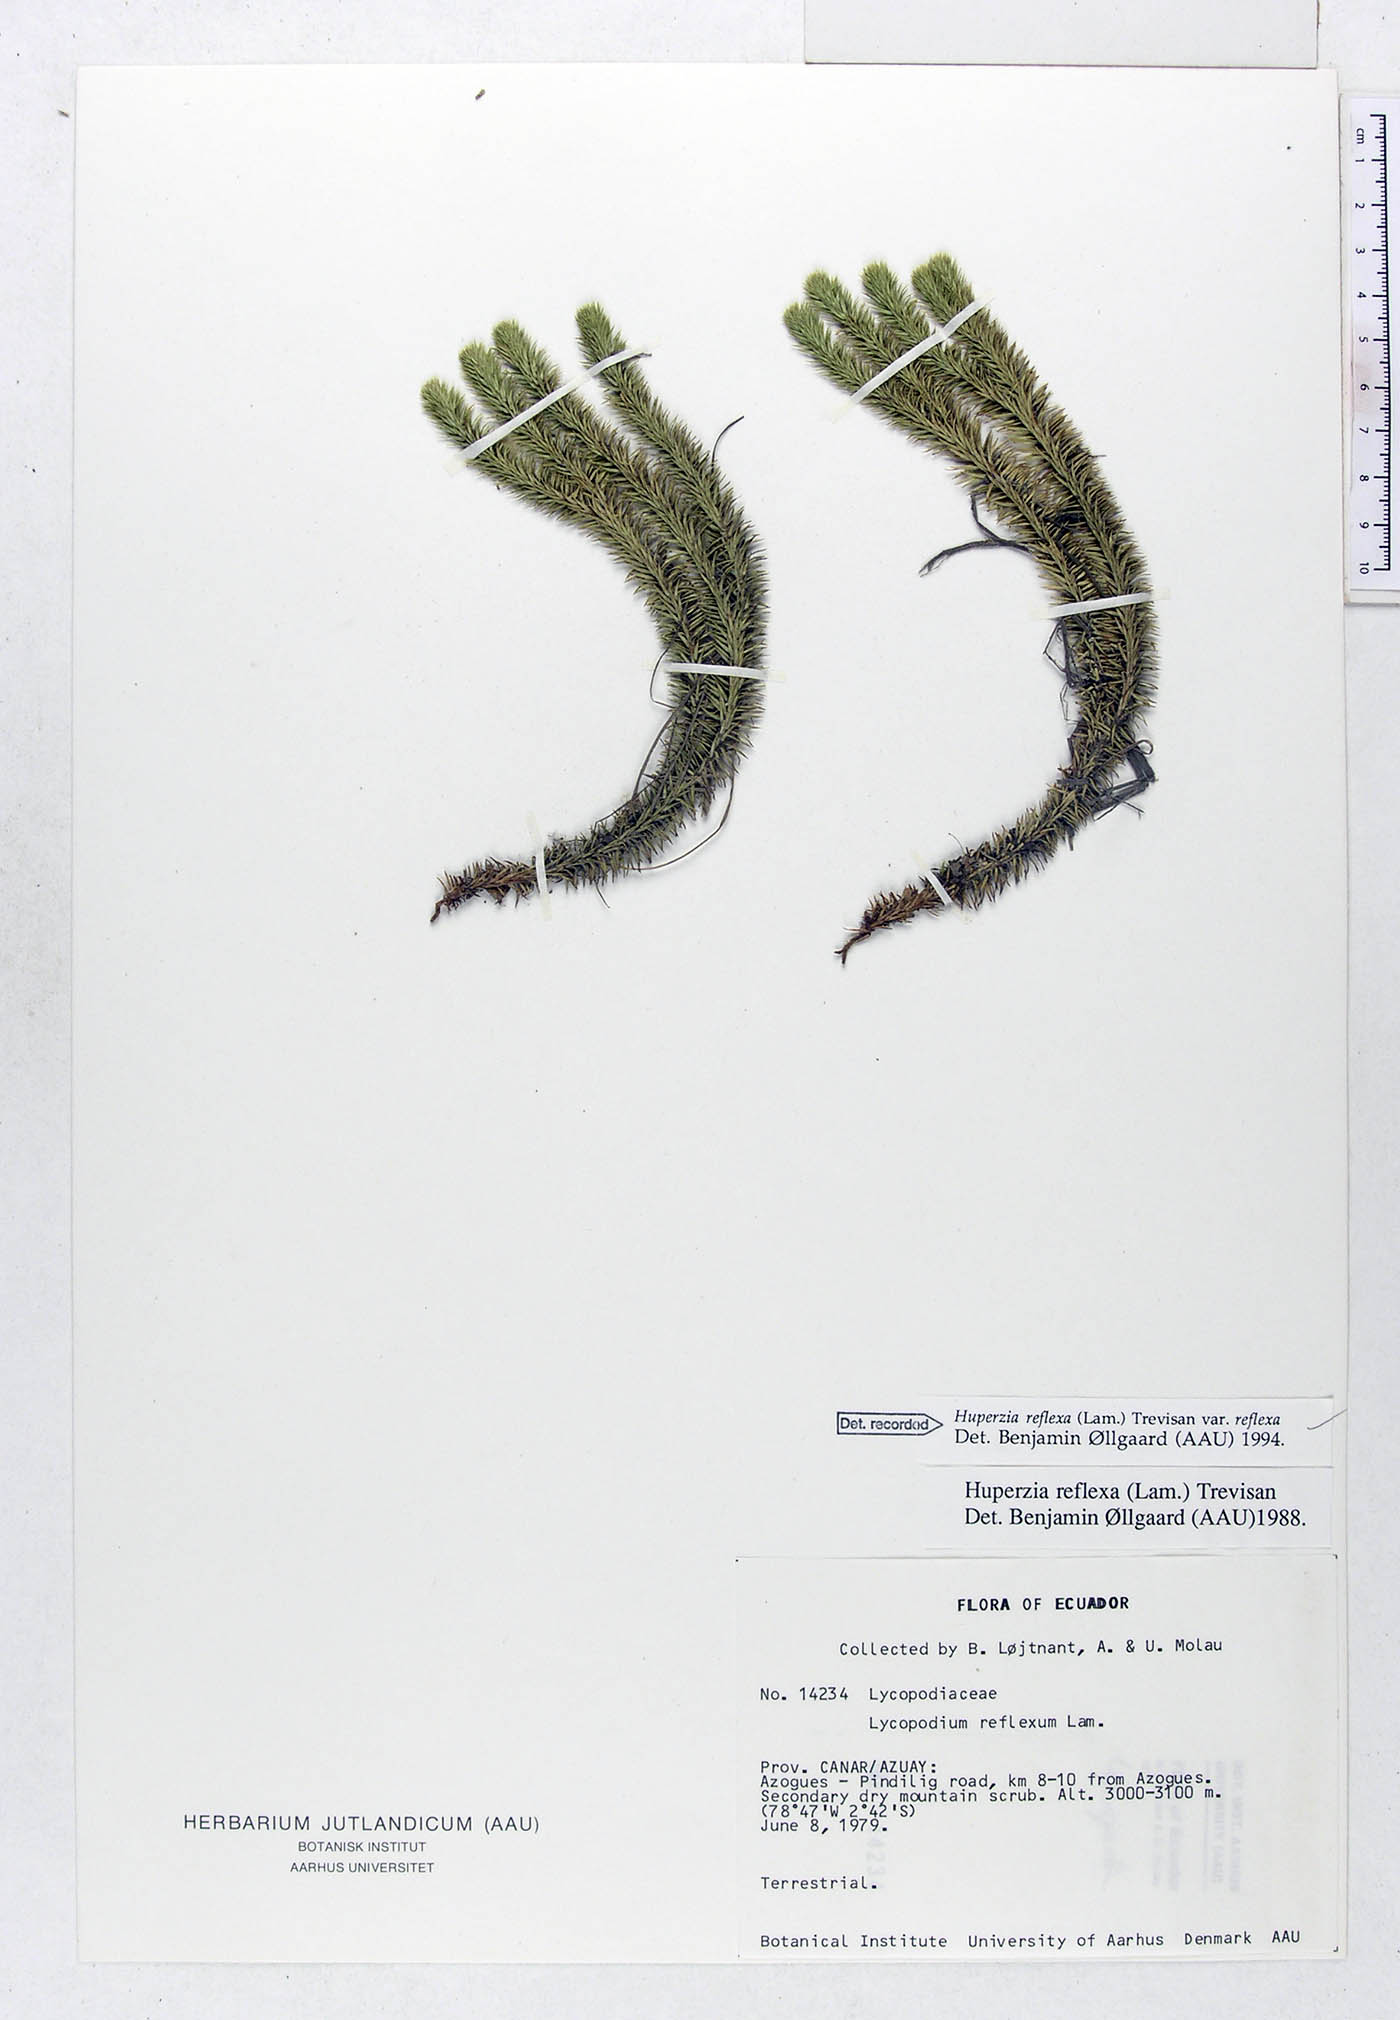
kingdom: Plantae
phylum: Tracheophyta
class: Lycopodiopsida
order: Lycopodiales
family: Lycopodiaceae
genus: Phlegmariurus
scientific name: Phlegmariurus reflexus
